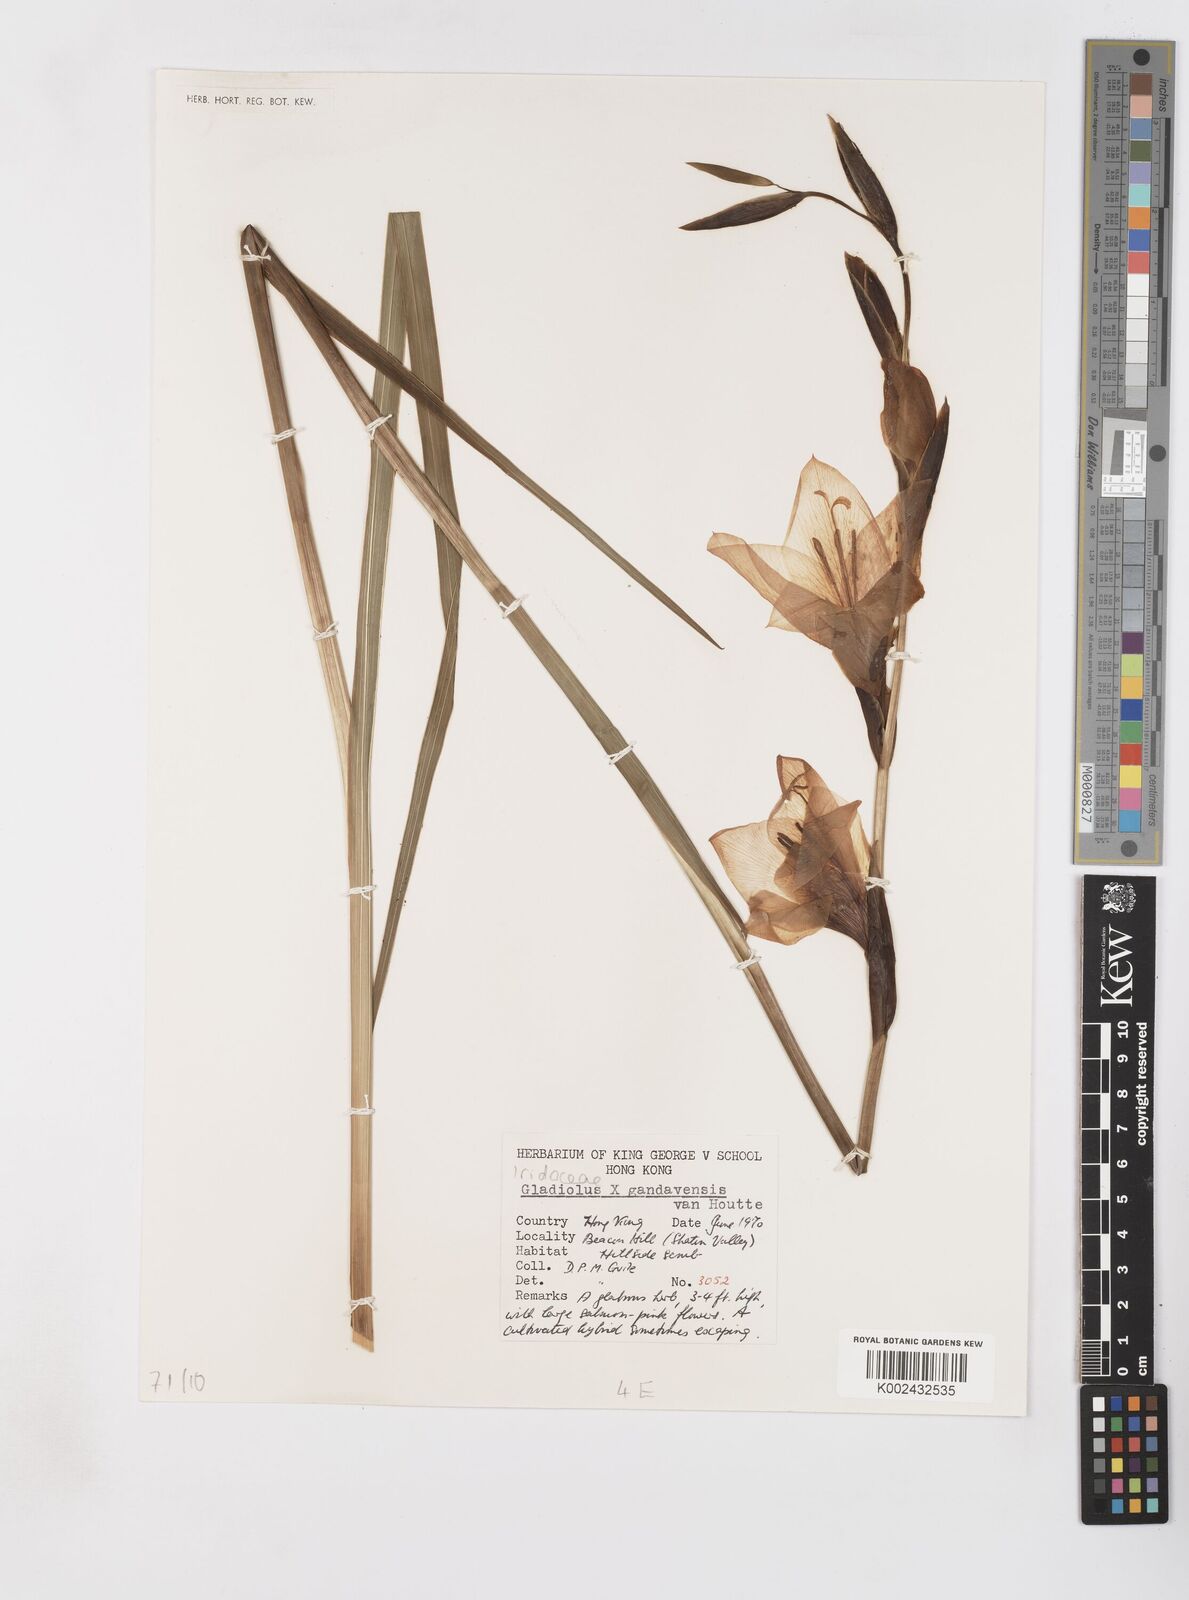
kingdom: Plantae
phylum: Tracheophyta
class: Liliopsida
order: Asparagales
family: Iridaceae
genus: Gladiolus
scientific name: Gladiolus gandavensis
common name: Gladiolus
